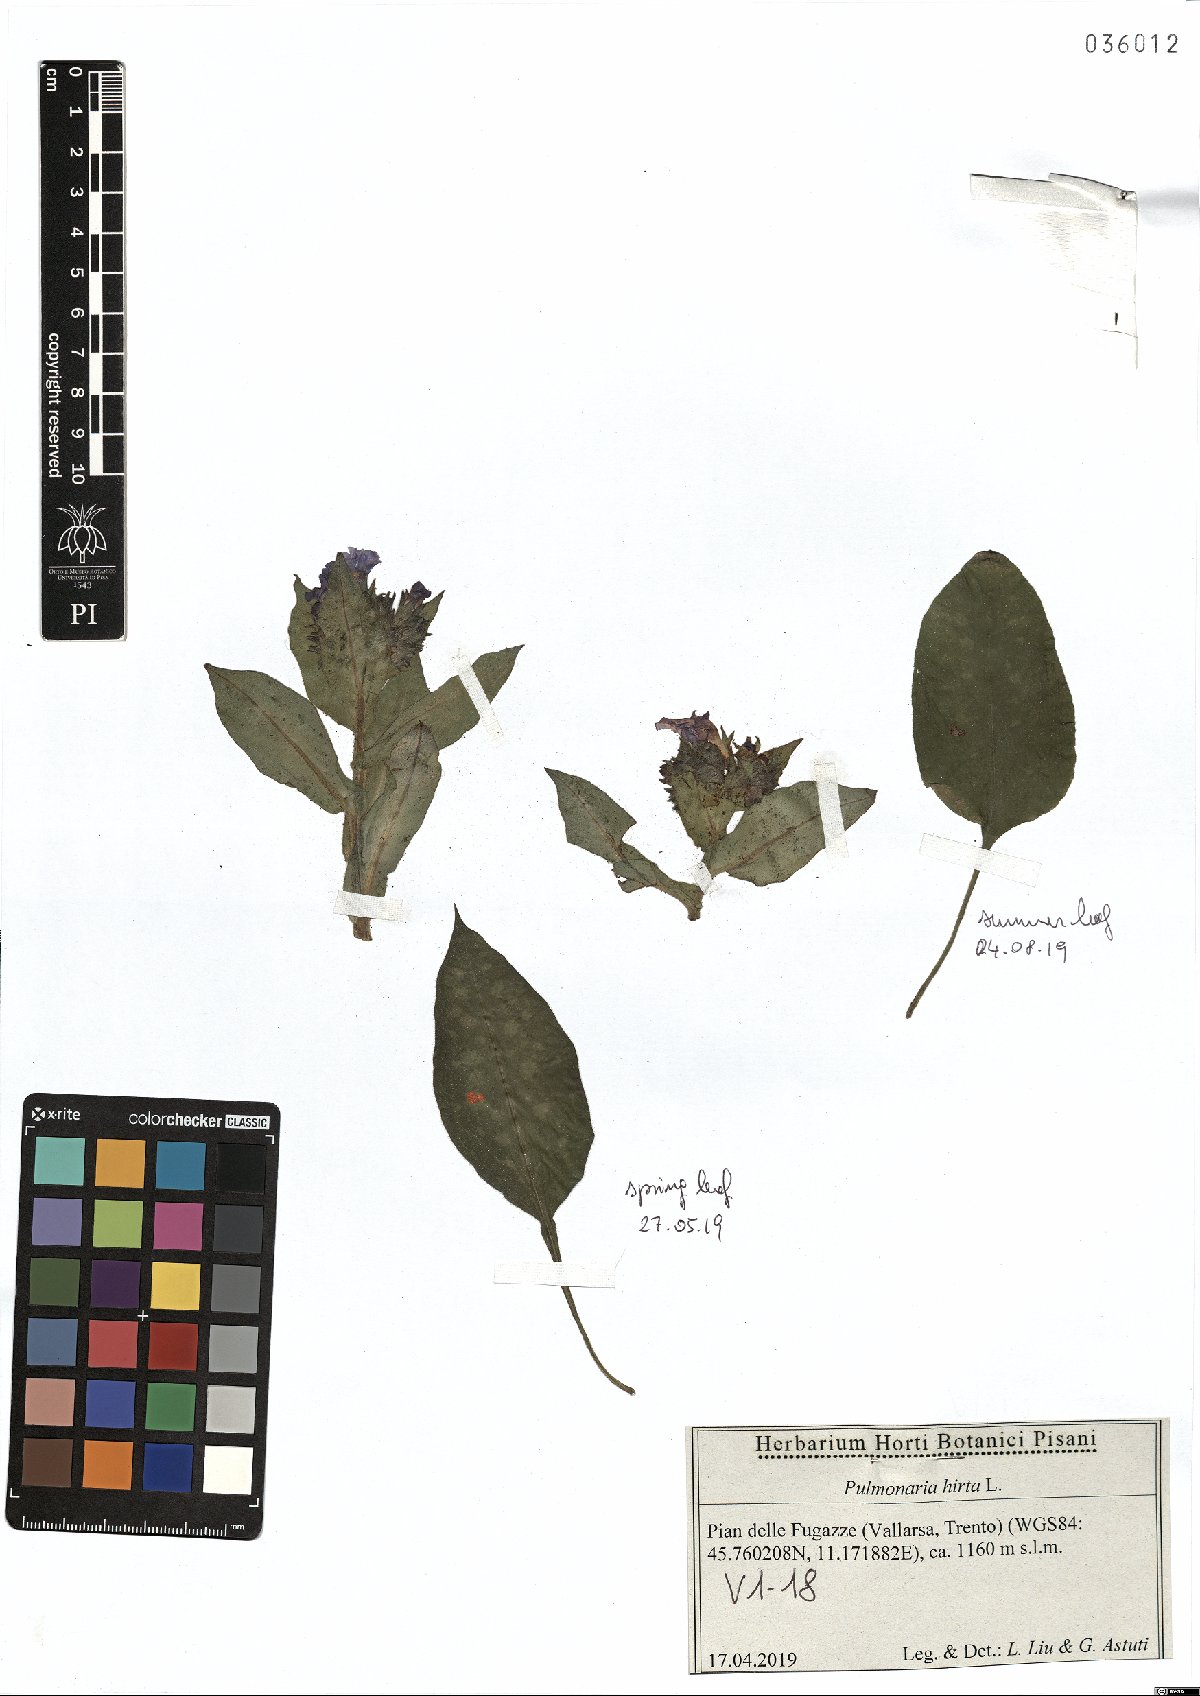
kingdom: Plantae
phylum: Tracheophyta
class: Magnoliopsida
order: Boraginales
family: Boraginaceae
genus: Pulmonaria
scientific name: Pulmonaria hirta
